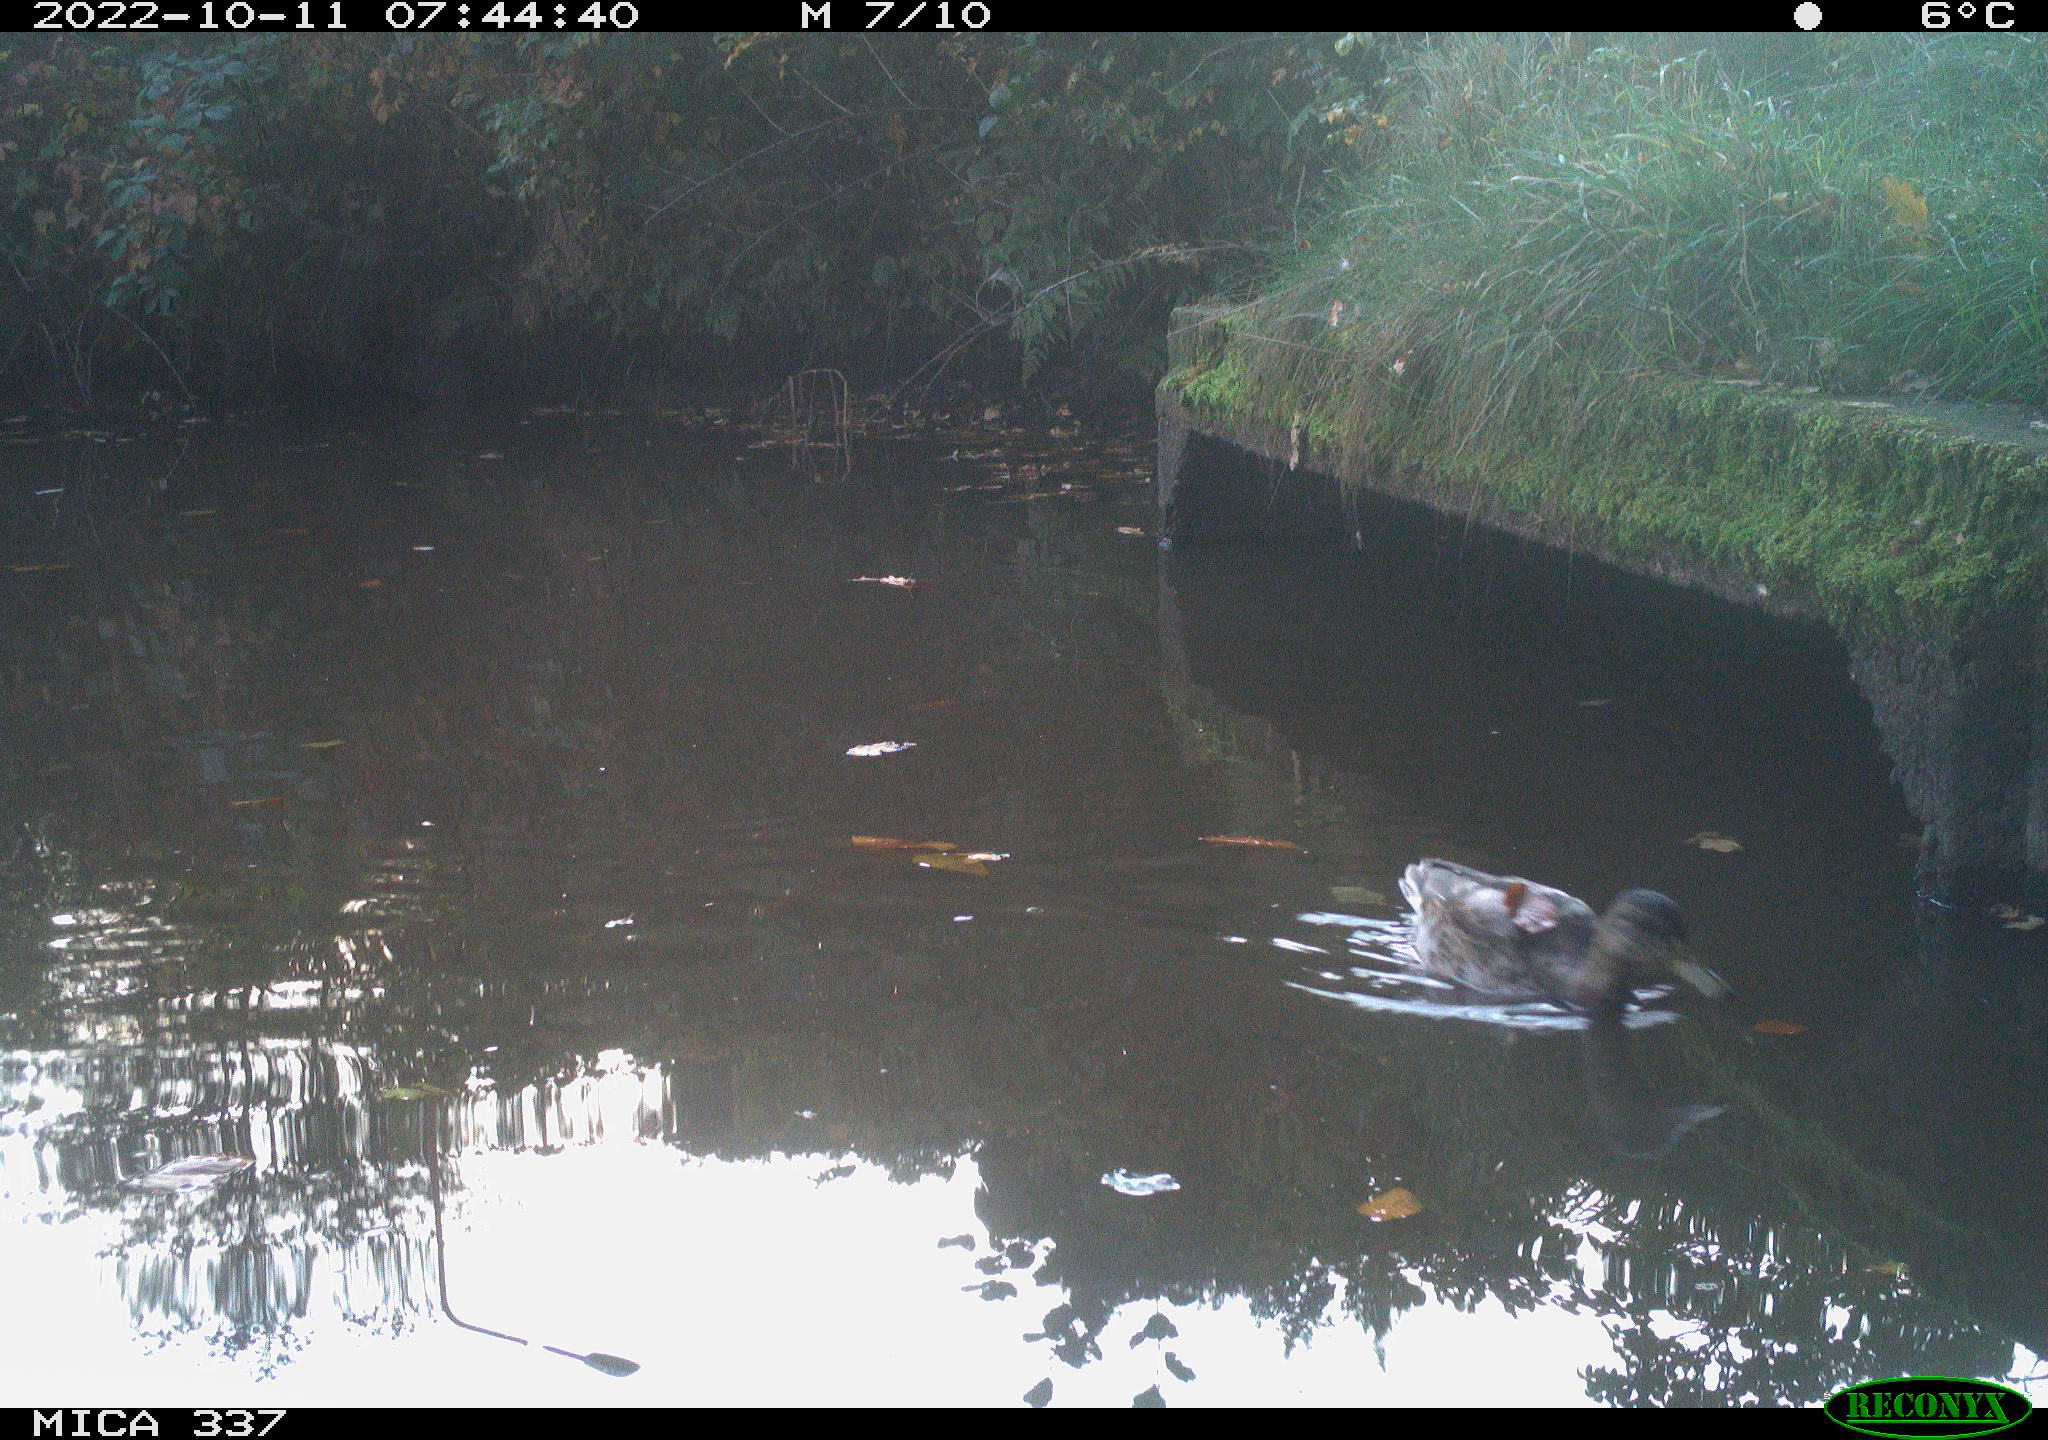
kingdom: Animalia
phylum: Chordata
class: Aves
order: Anseriformes
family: Anatidae
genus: Anas
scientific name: Anas platyrhynchos
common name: Mallard
